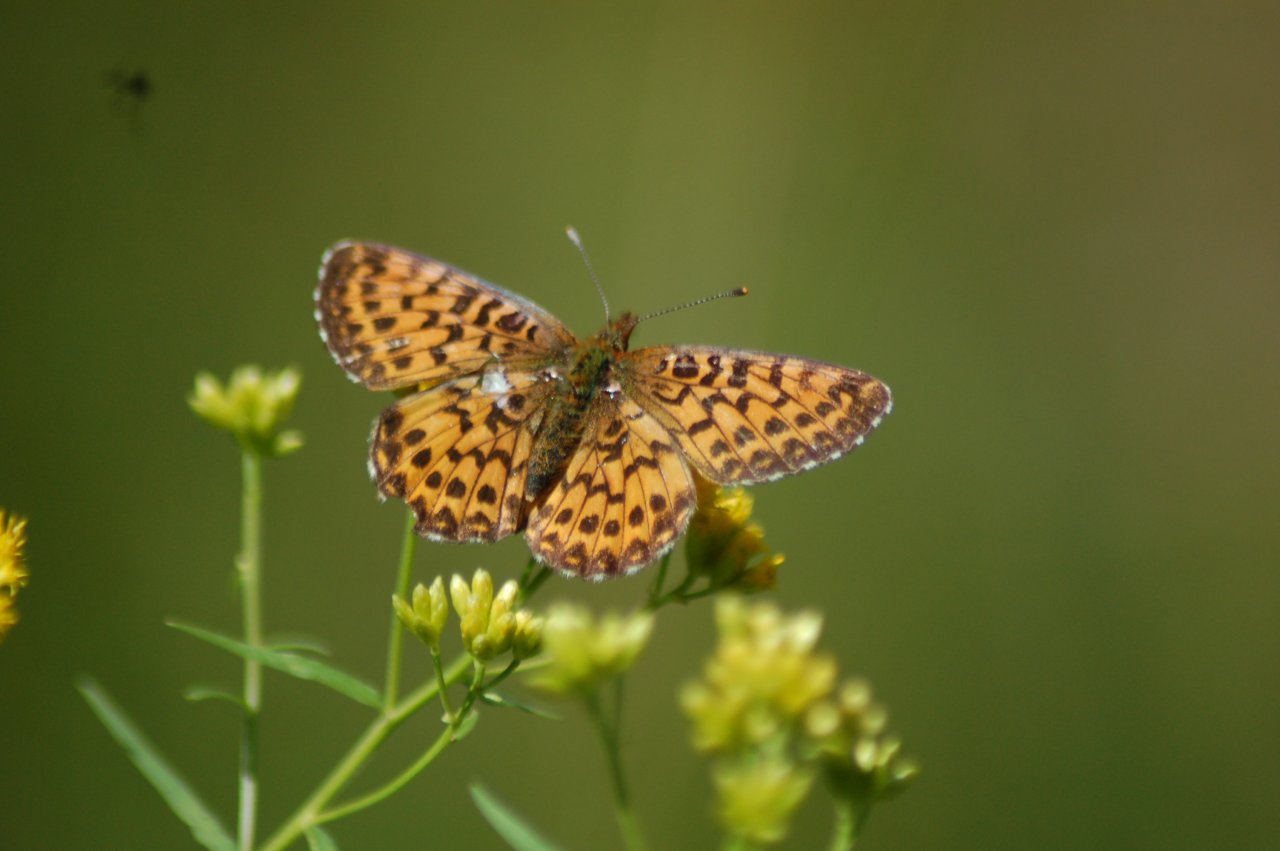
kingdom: Animalia
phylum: Arthropoda
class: Insecta
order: Lepidoptera
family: Nymphalidae
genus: Boloria
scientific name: Boloria chariclea
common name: Arctic Fritillary
